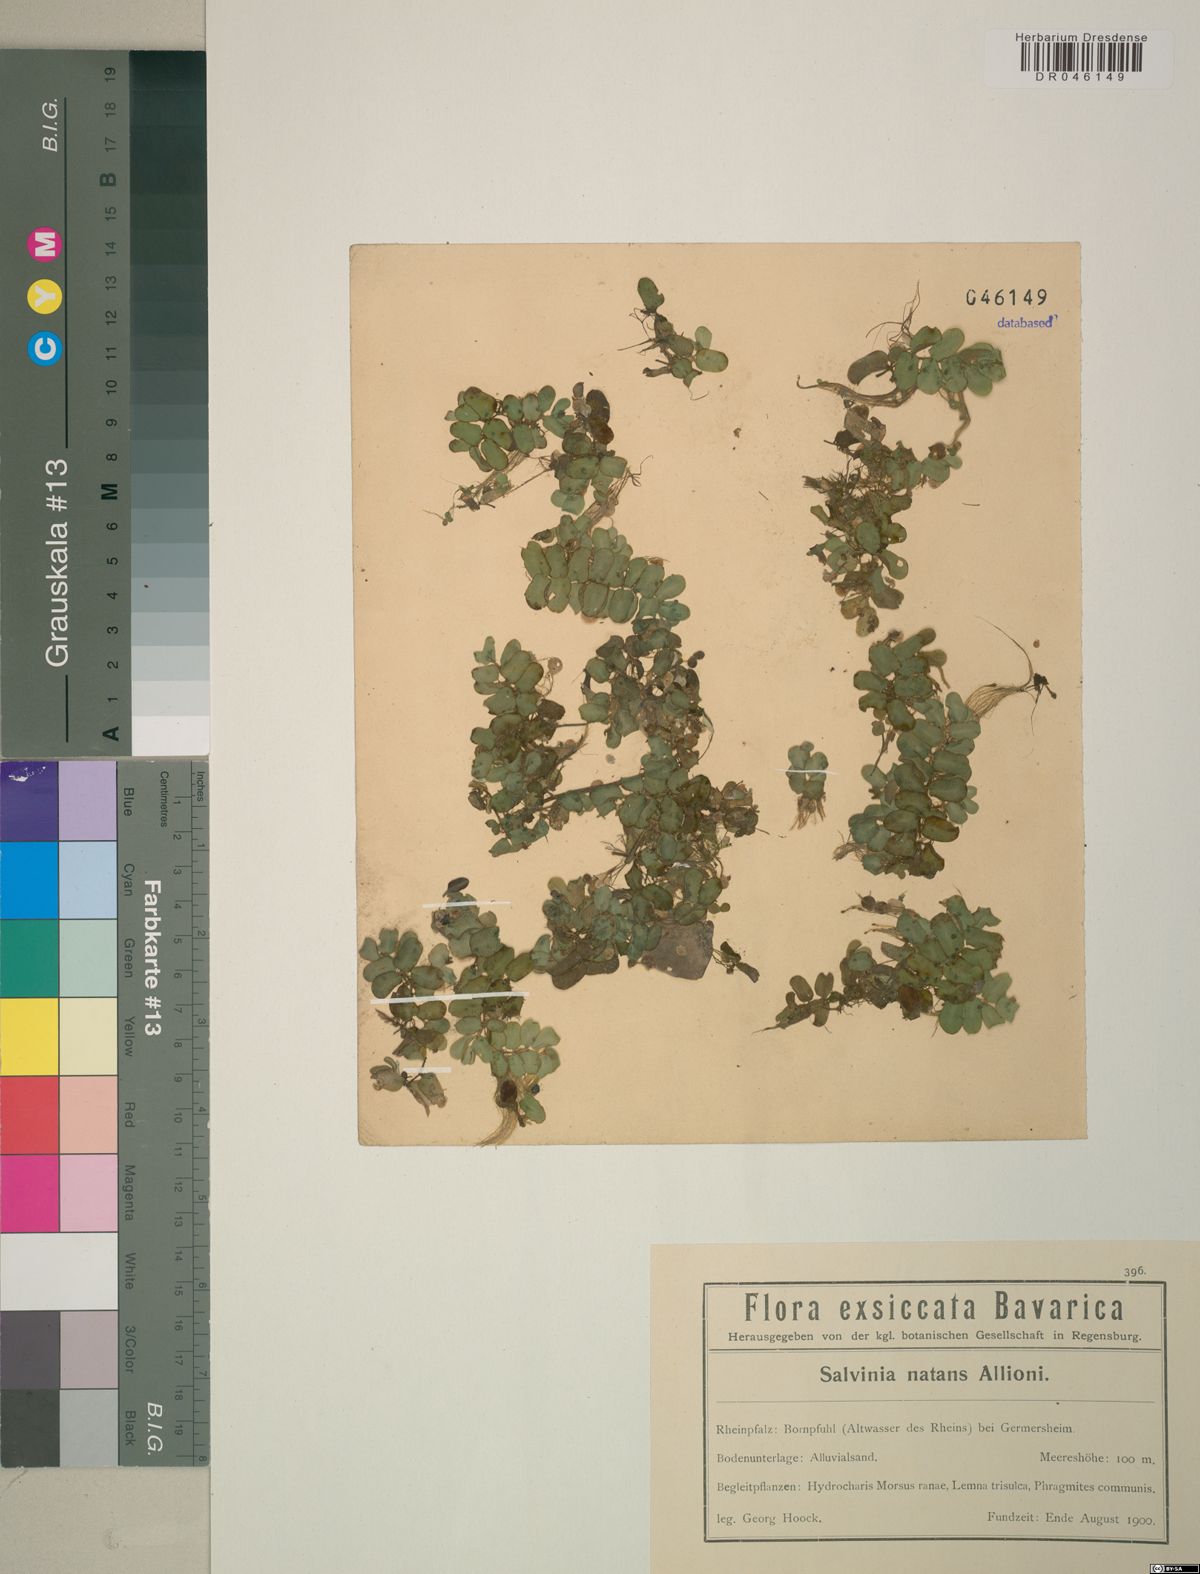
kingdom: Plantae
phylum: Tracheophyta
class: Polypodiopsida
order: Salviniales
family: Salviniaceae
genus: Salvinia
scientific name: Salvinia natans
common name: Floating fern
